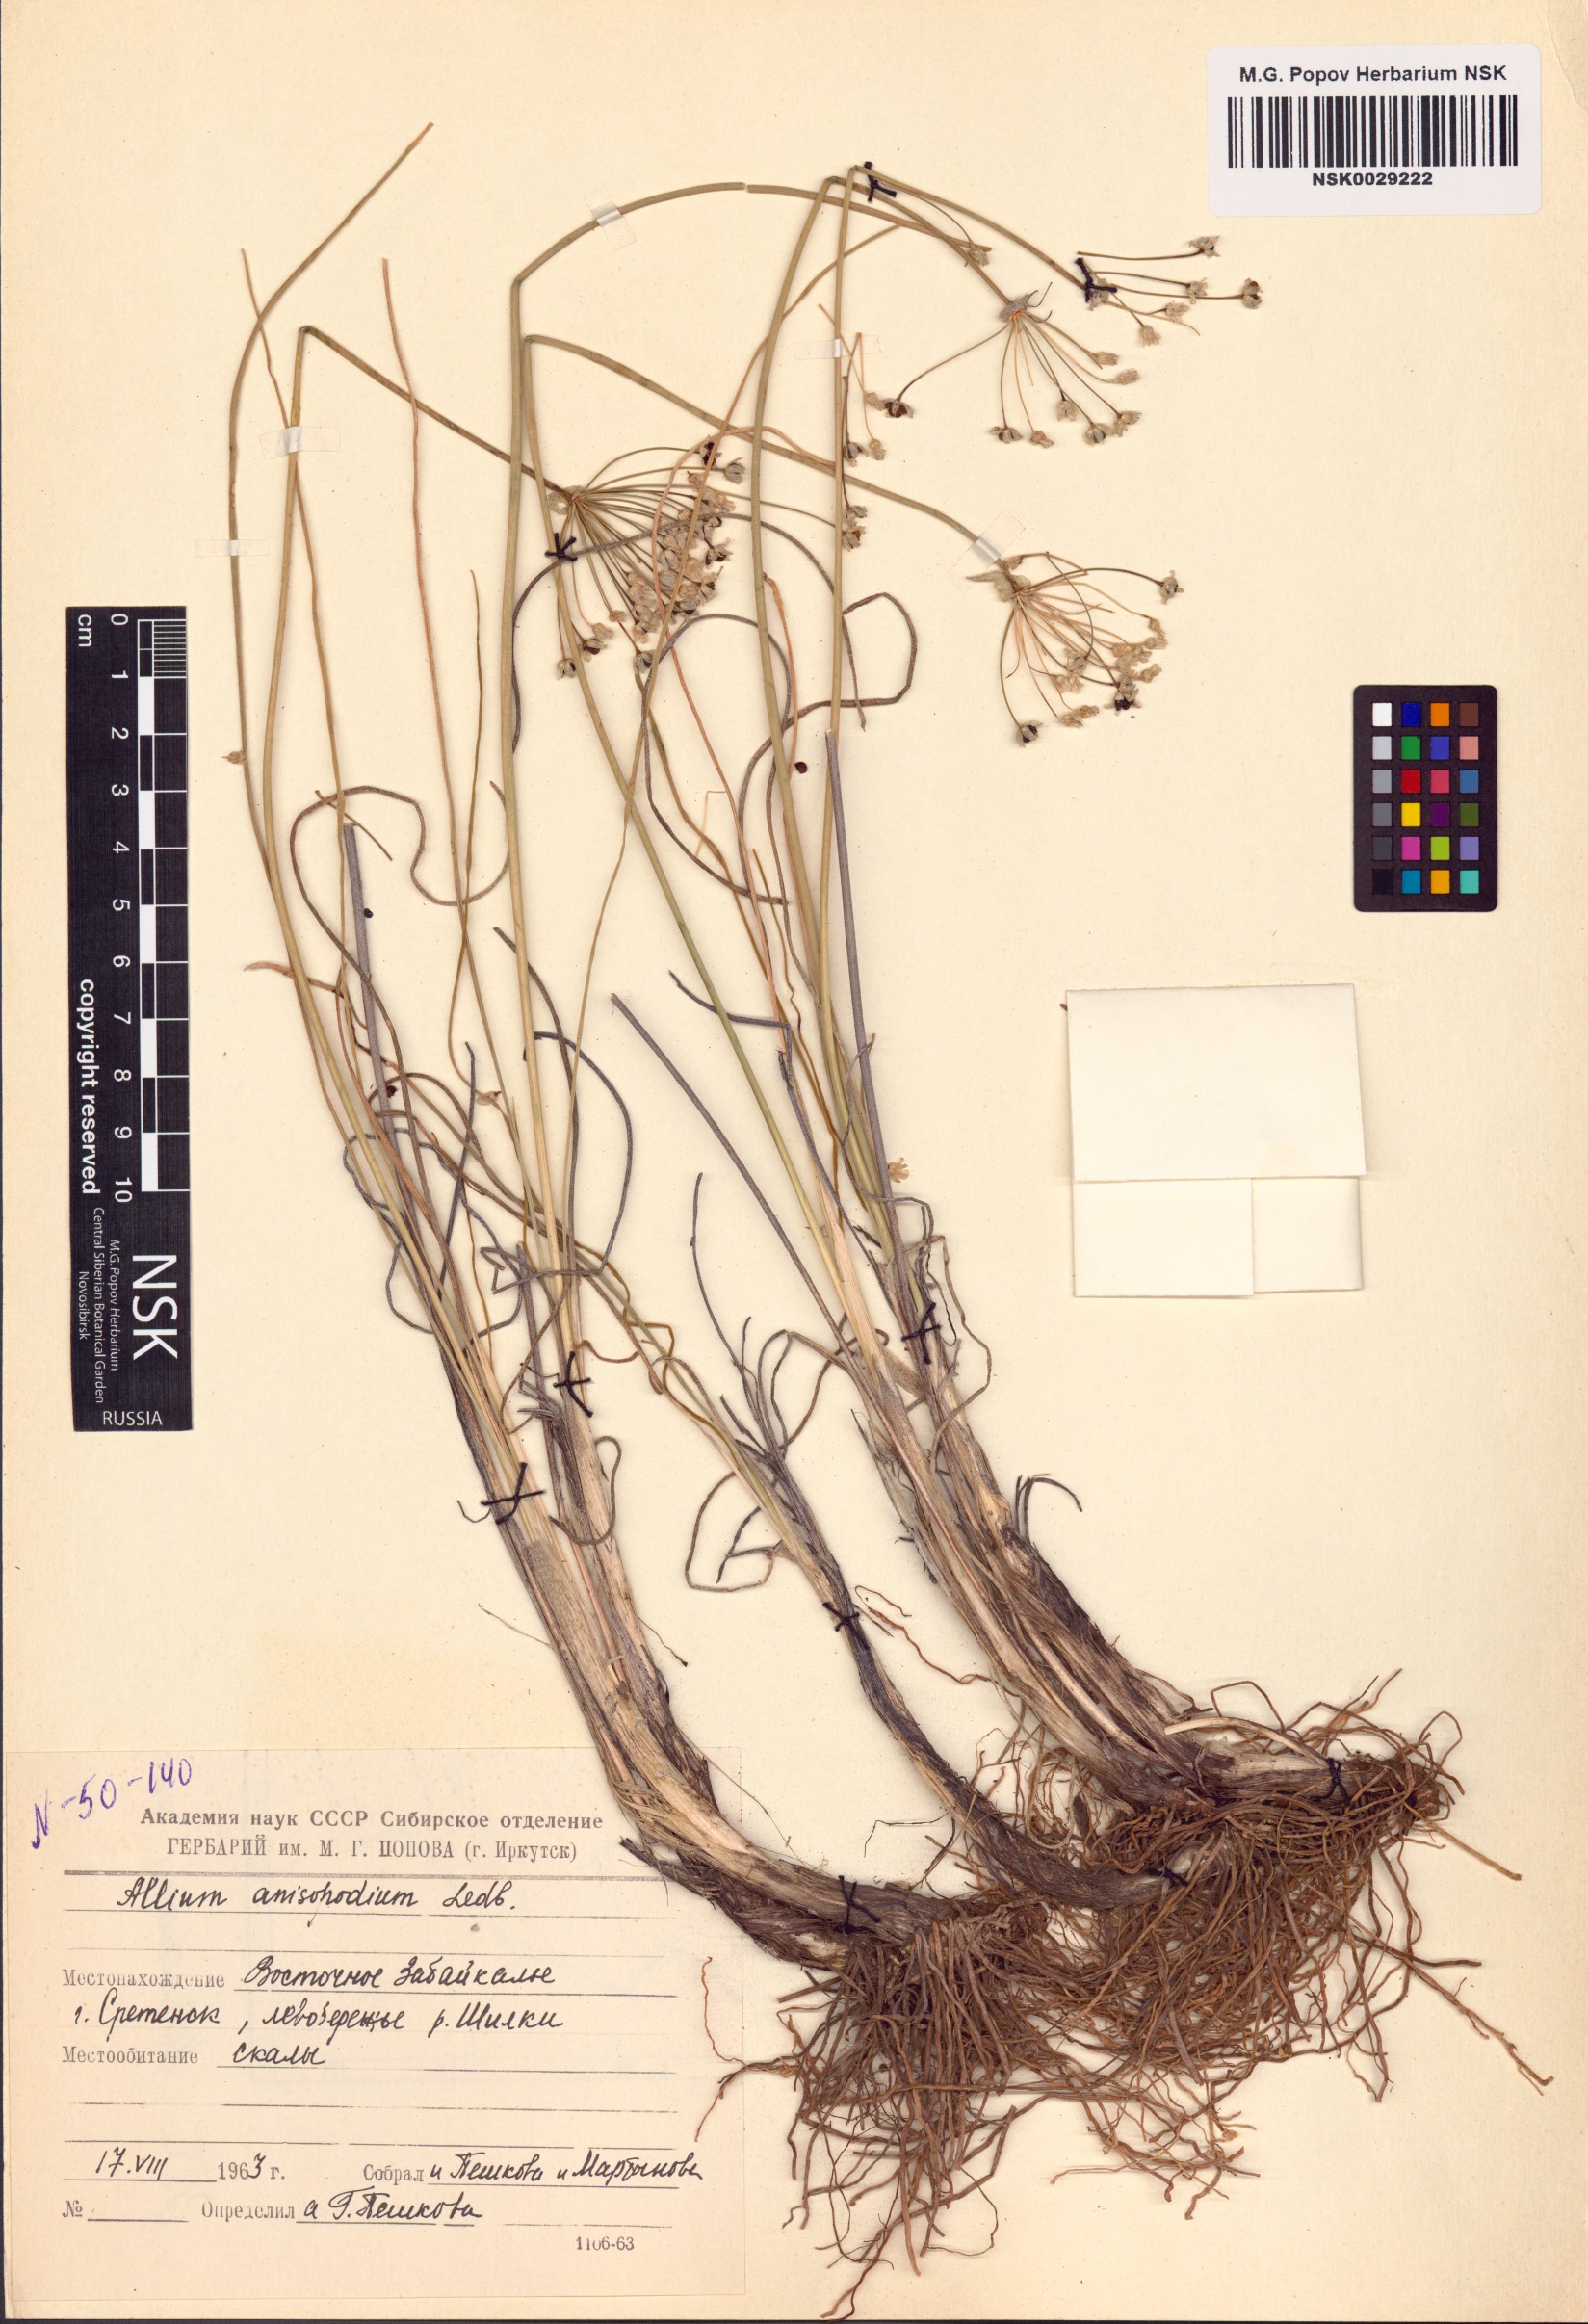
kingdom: Plantae
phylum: Tracheophyta
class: Liliopsida
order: Asparagales
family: Amaryllidaceae
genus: Allium
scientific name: Allium anisopodium
